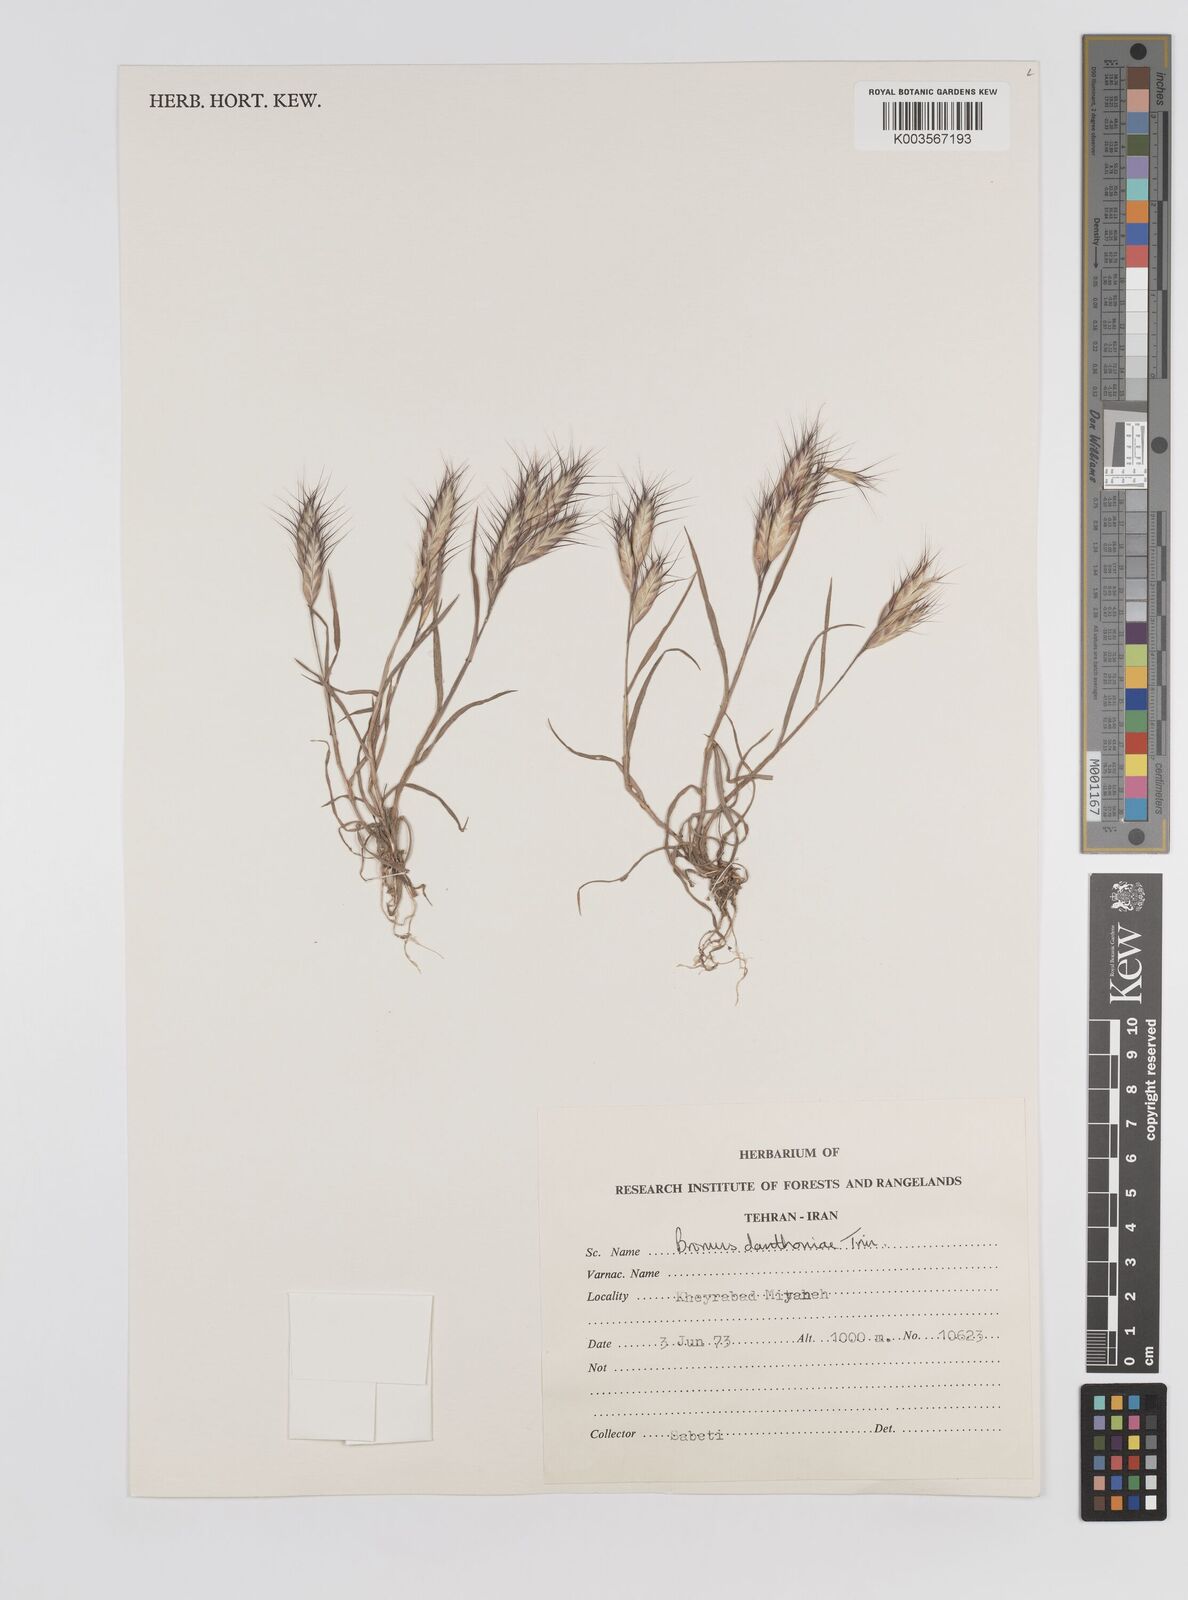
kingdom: Plantae
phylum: Tracheophyta
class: Liliopsida
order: Poales
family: Poaceae
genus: Bromus
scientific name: Bromus danthoniae
